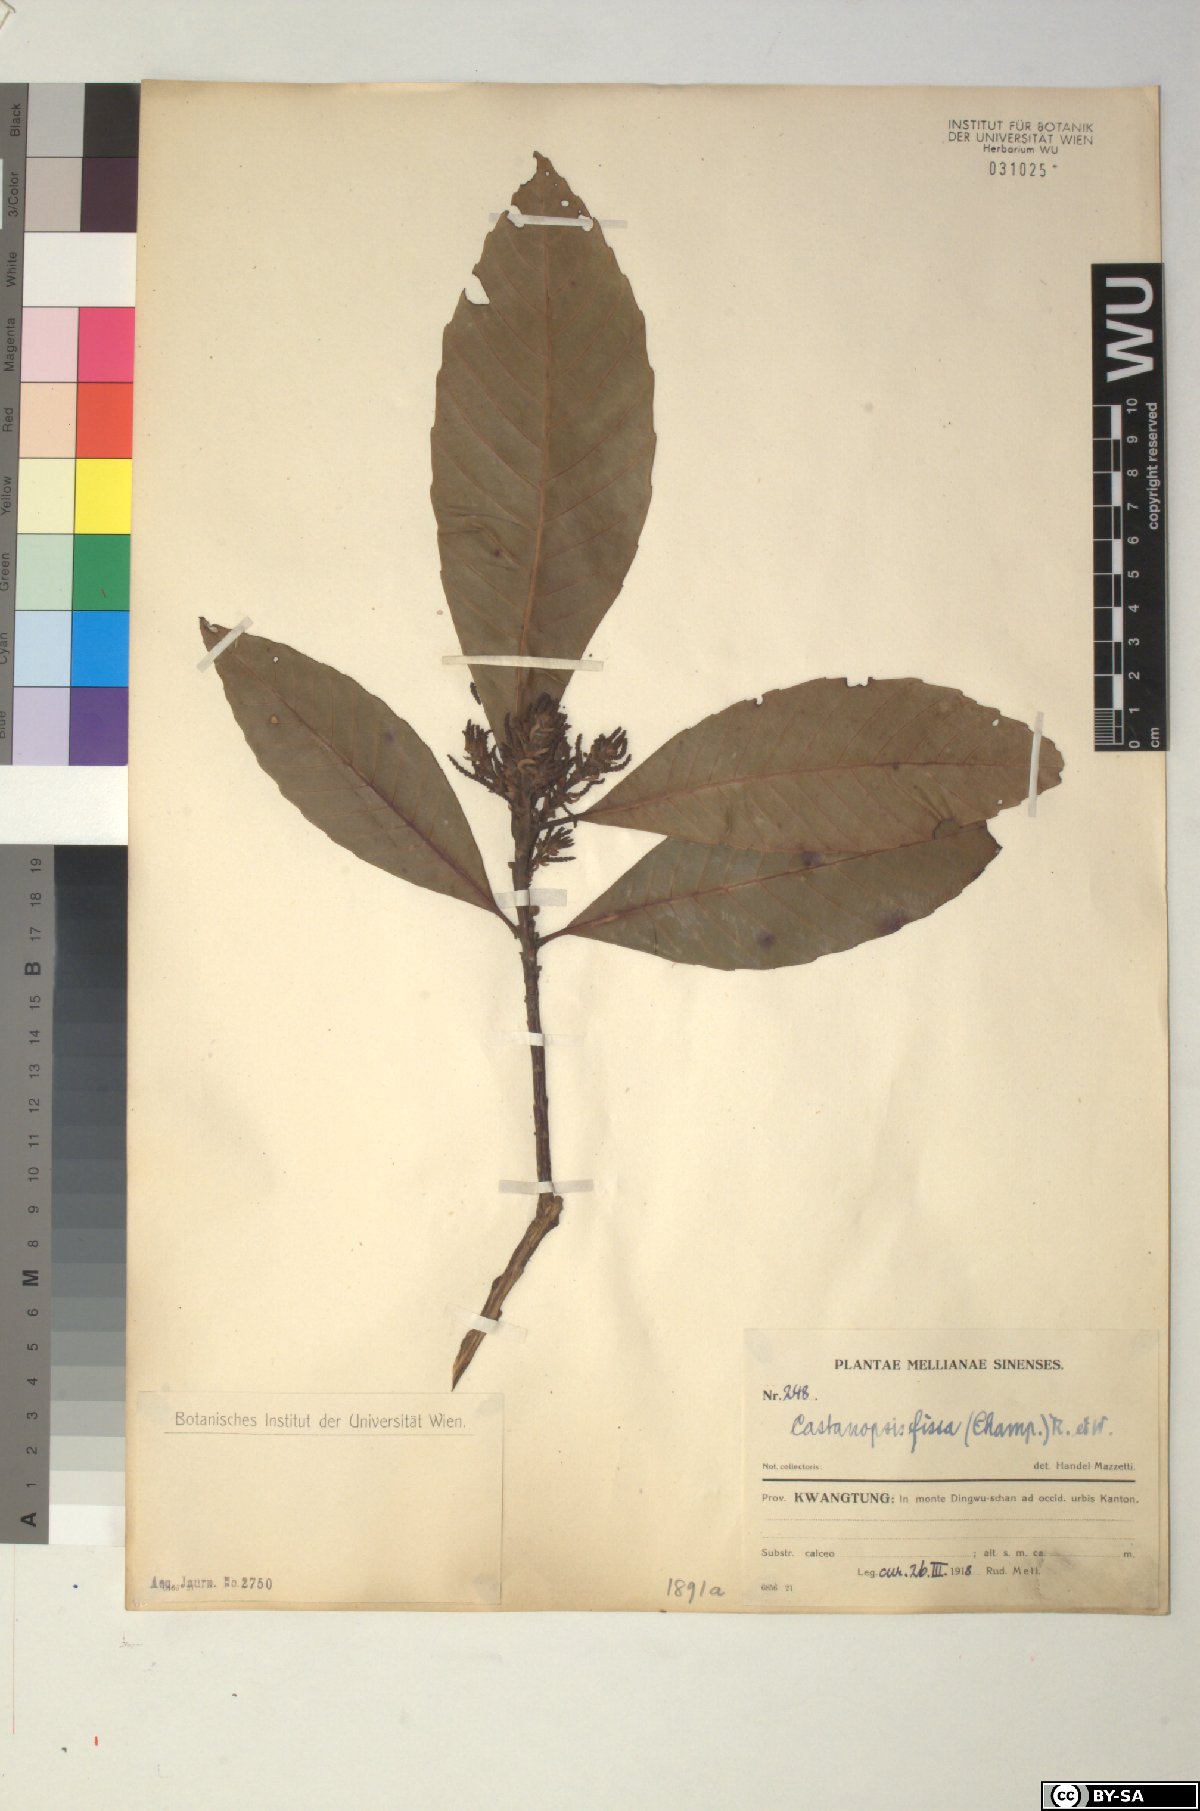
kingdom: Plantae
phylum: Tracheophyta
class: Magnoliopsida
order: Fagales
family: Fagaceae
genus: Castanopsis
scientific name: Castanopsis fissa
